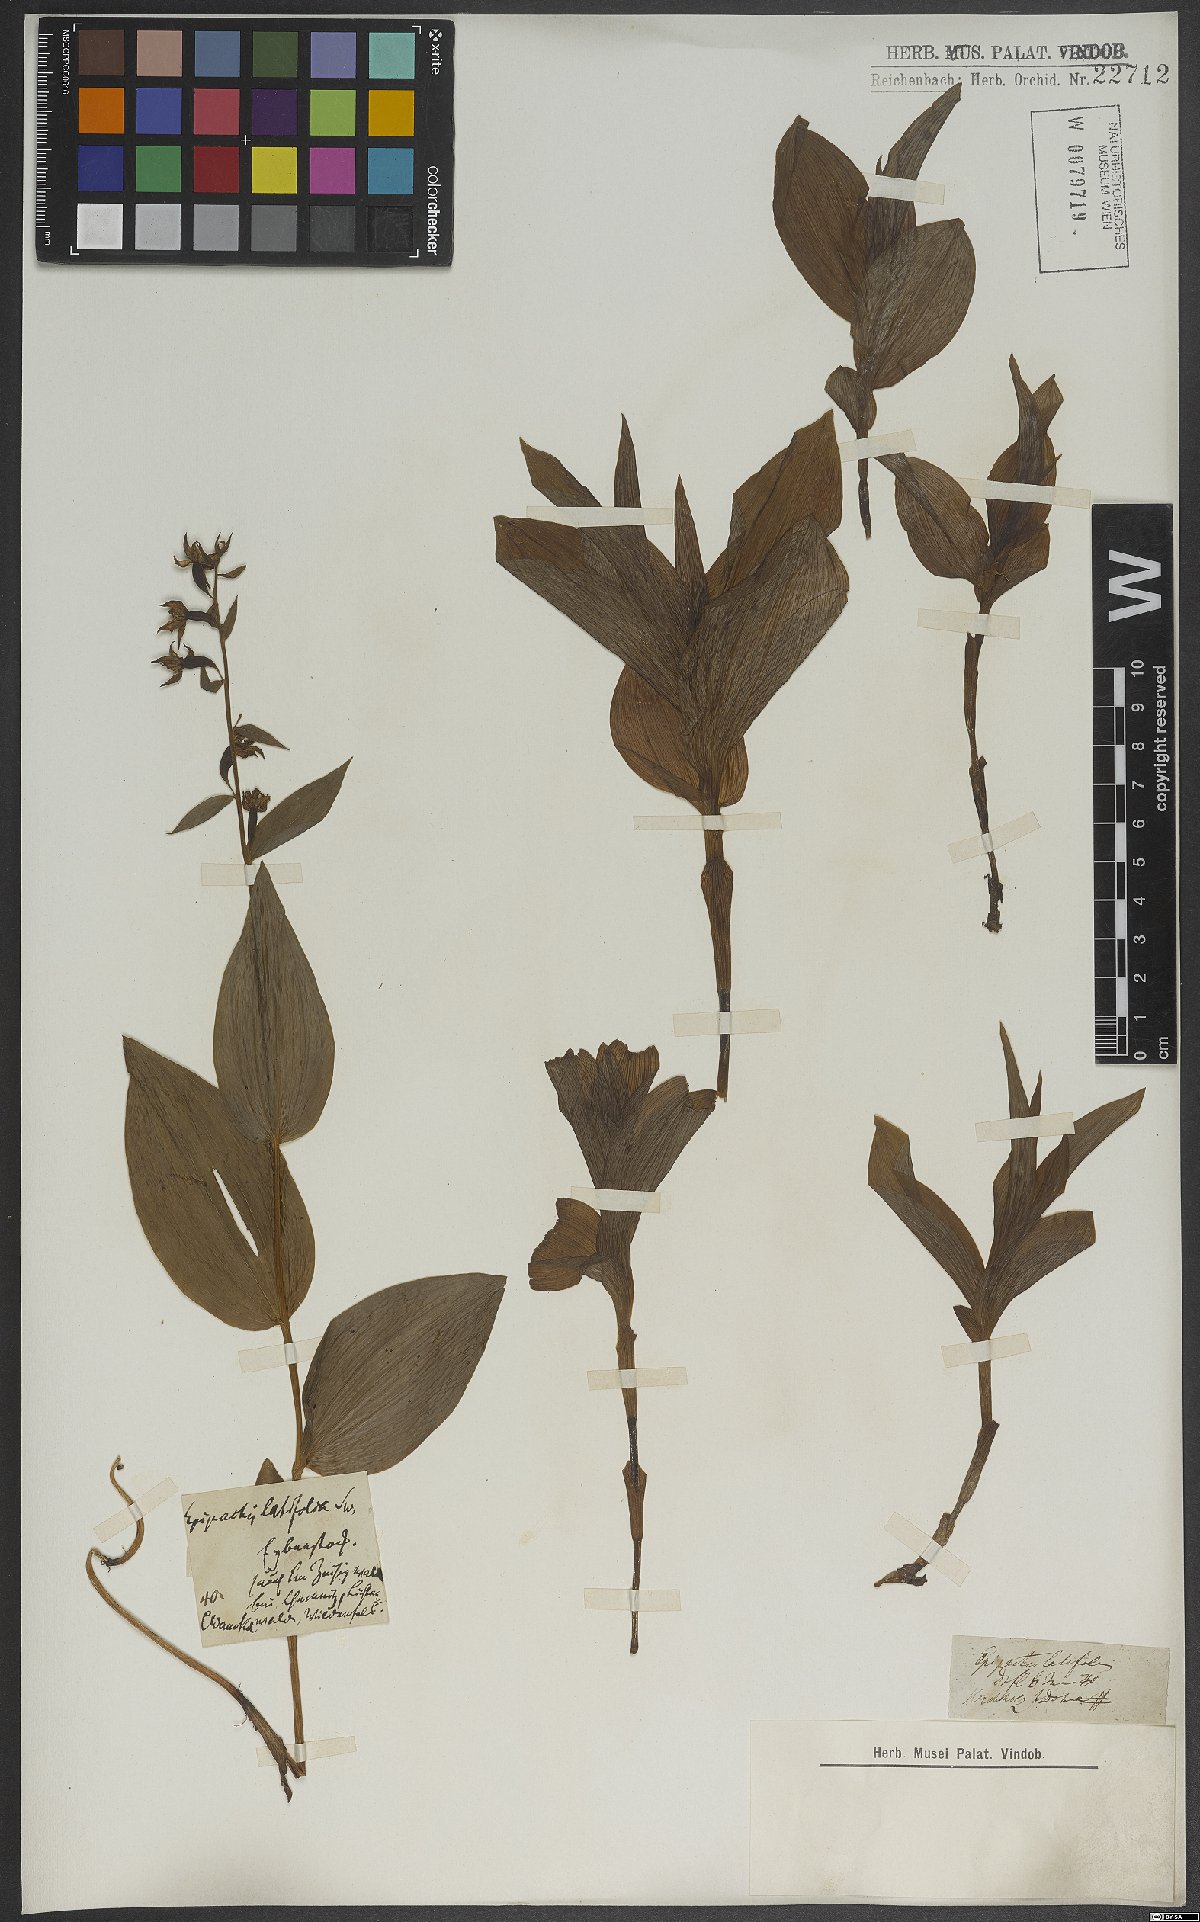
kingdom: Plantae
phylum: Tracheophyta
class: Liliopsida
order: Asparagales
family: Orchidaceae
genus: Epipactis
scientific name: Epipactis helleborine
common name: Broad-leaved helleborine
